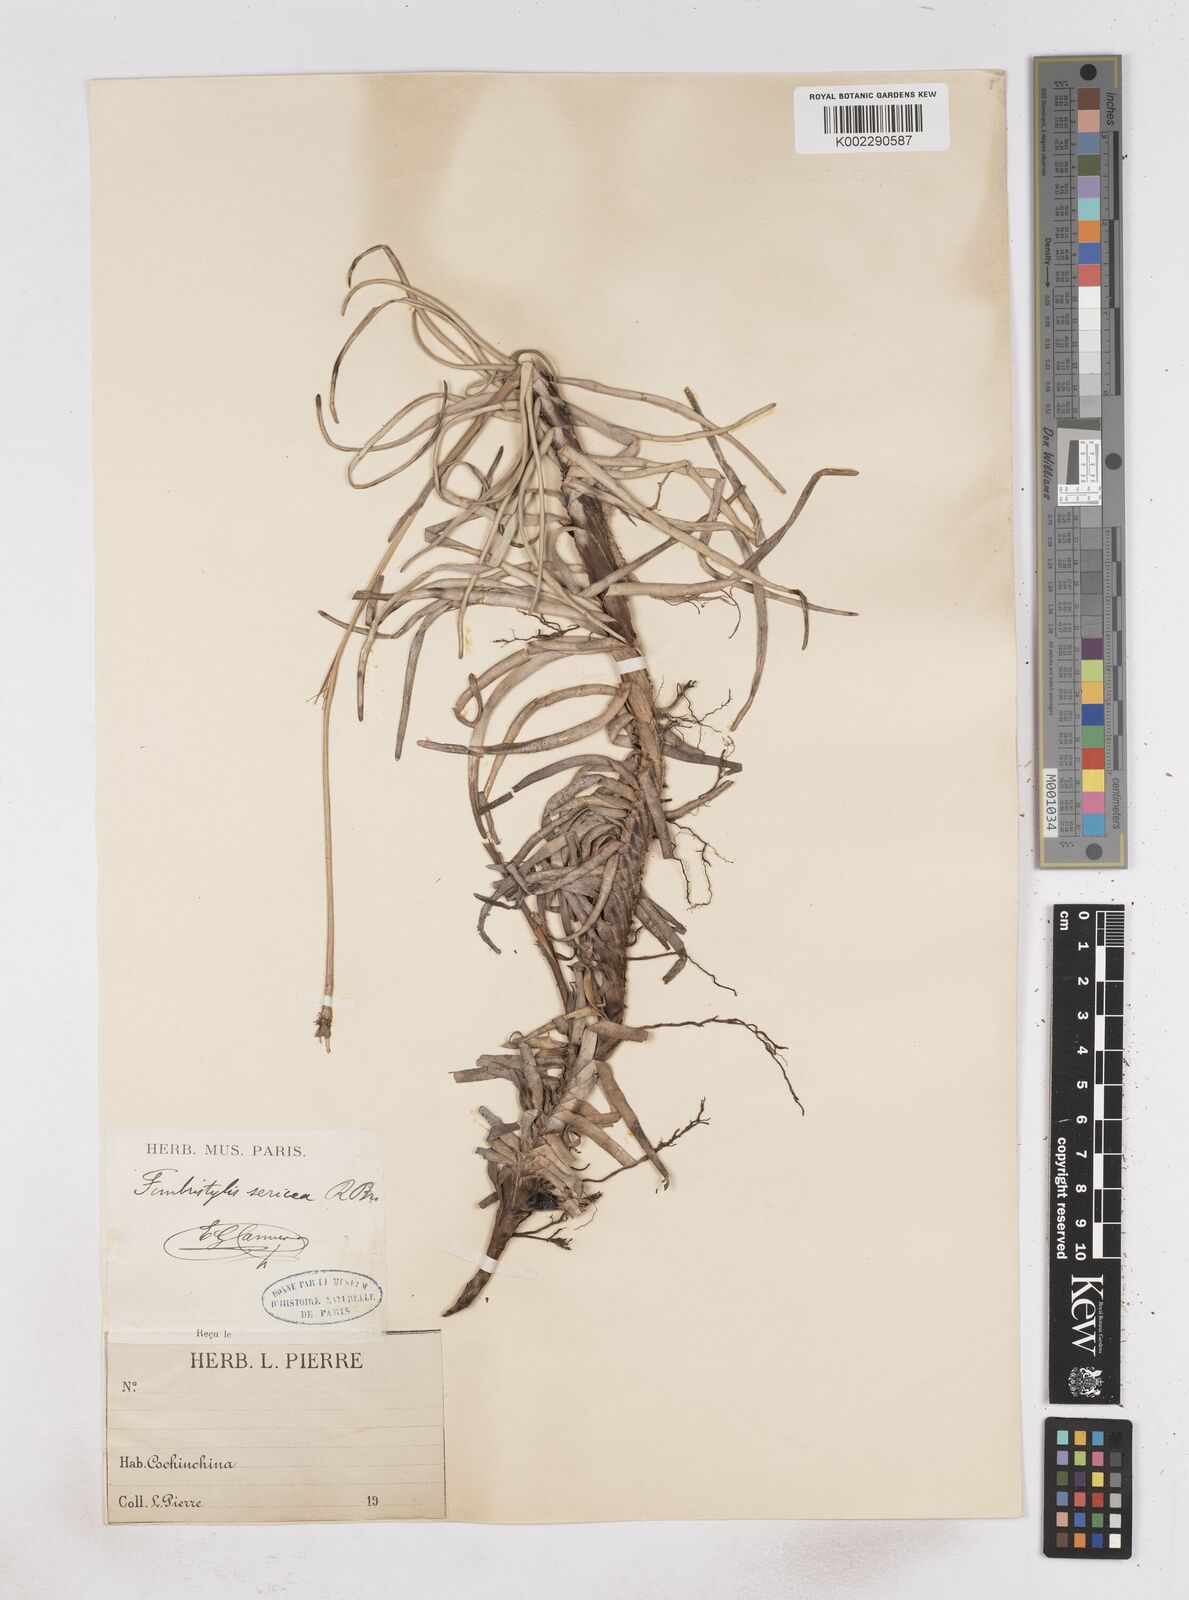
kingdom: Plantae
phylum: Tracheophyta
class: Liliopsida
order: Poales
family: Cyperaceae
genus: Fimbristylis
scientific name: Fimbristylis sericea
